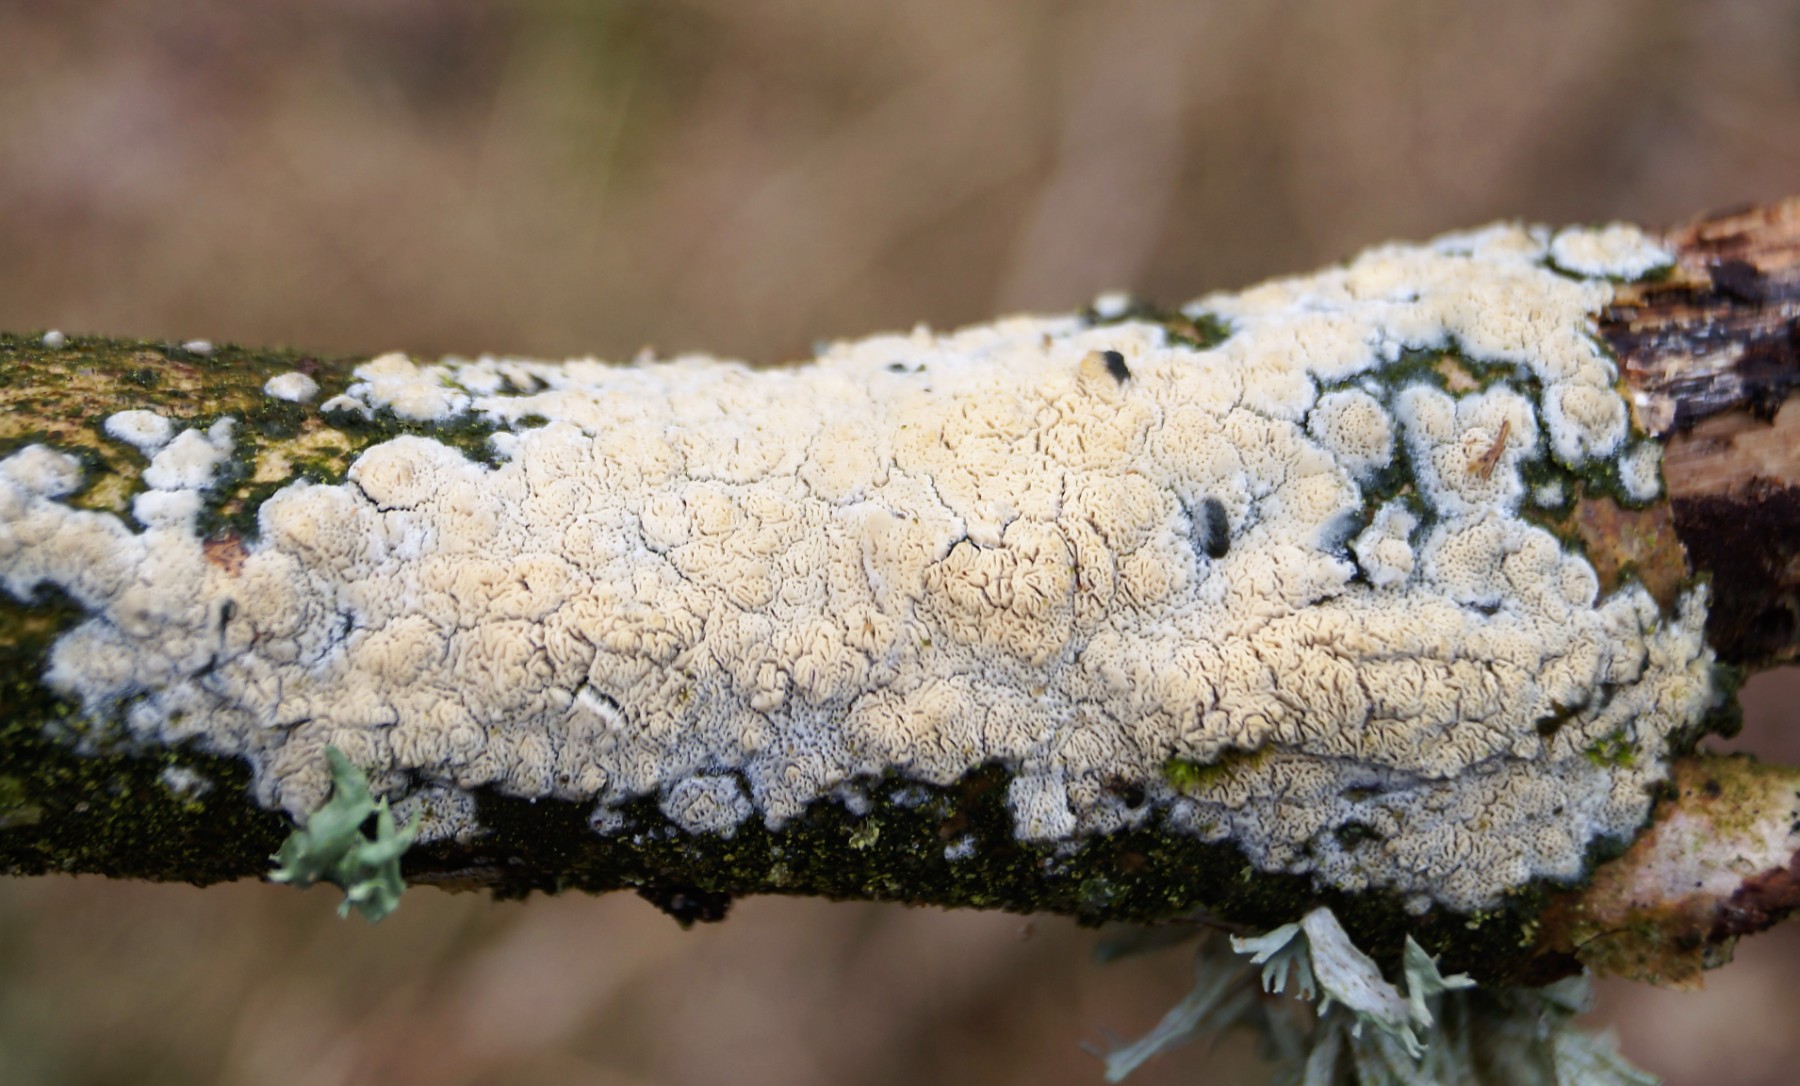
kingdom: Fungi
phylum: Basidiomycota
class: Agaricomycetes
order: Hymenochaetales
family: Schizoporaceae
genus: Xylodon
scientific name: Xylodon subtropicus
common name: labyrint-tandsvamp
